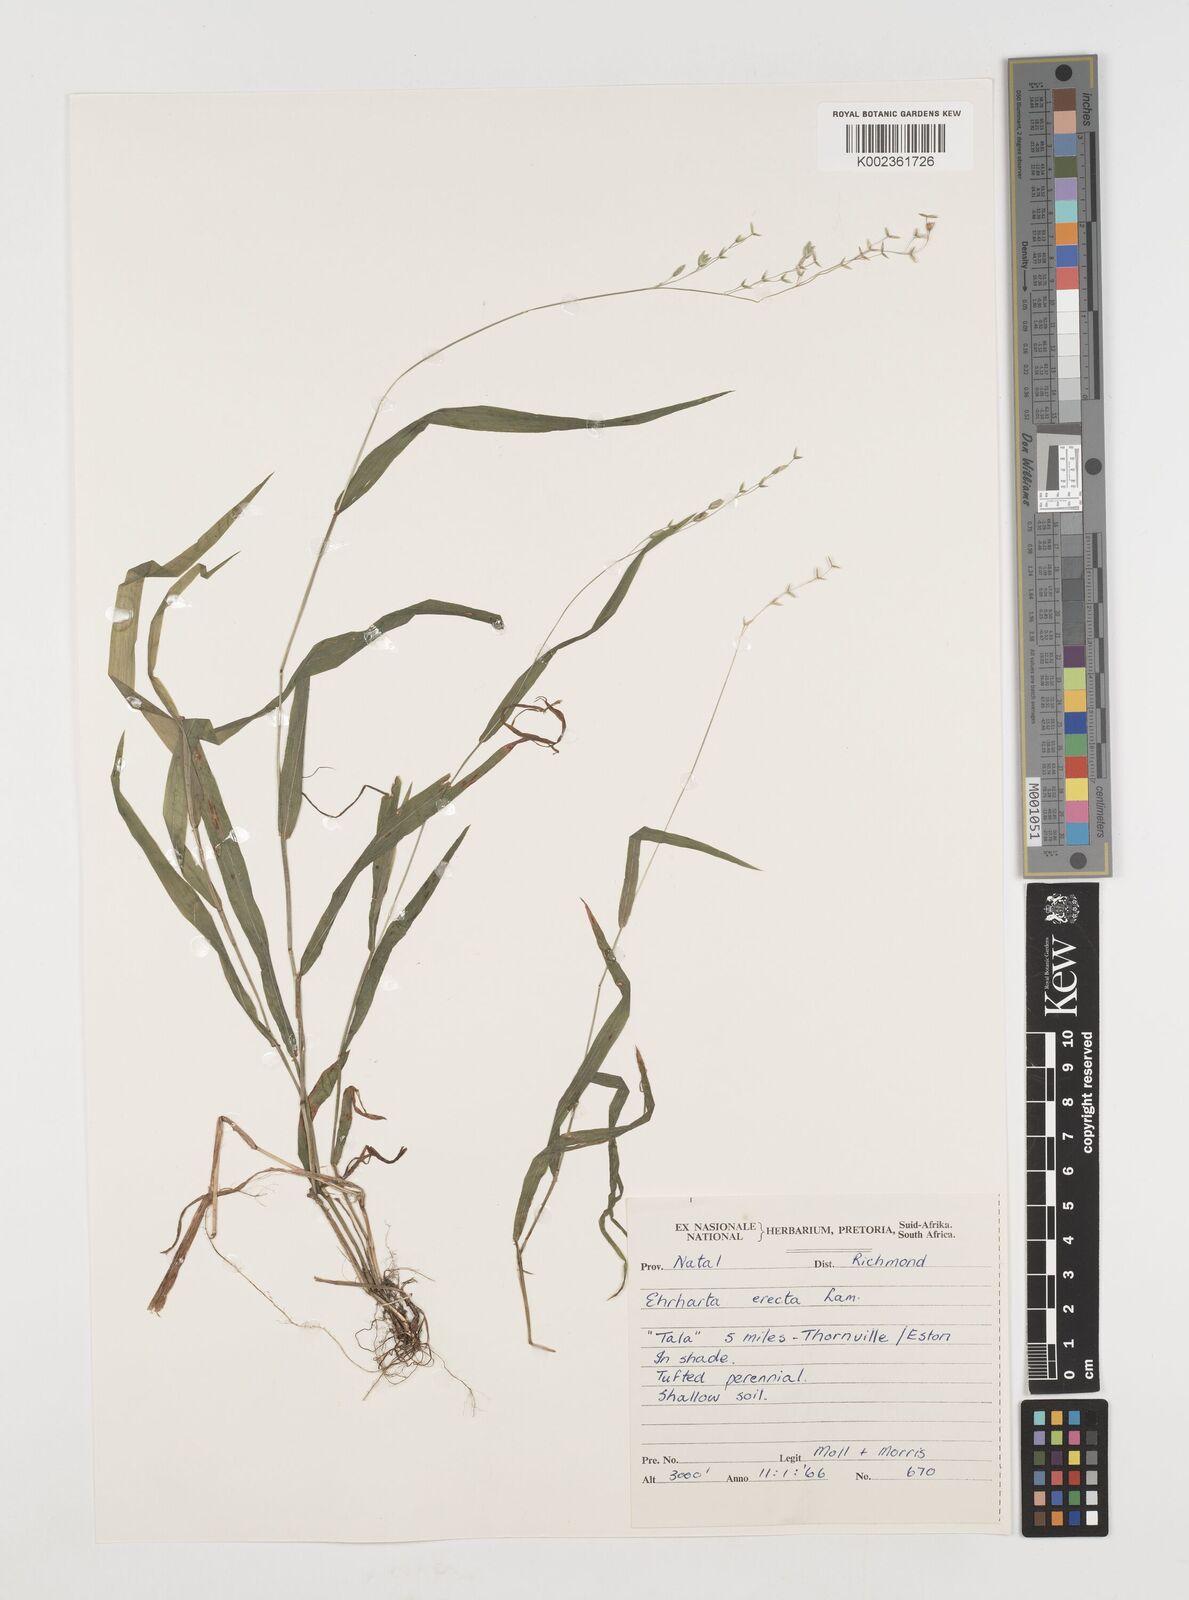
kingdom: Plantae
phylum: Tracheophyta
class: Liliopsida
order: Poales
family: Poaceae
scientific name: Poaceae
